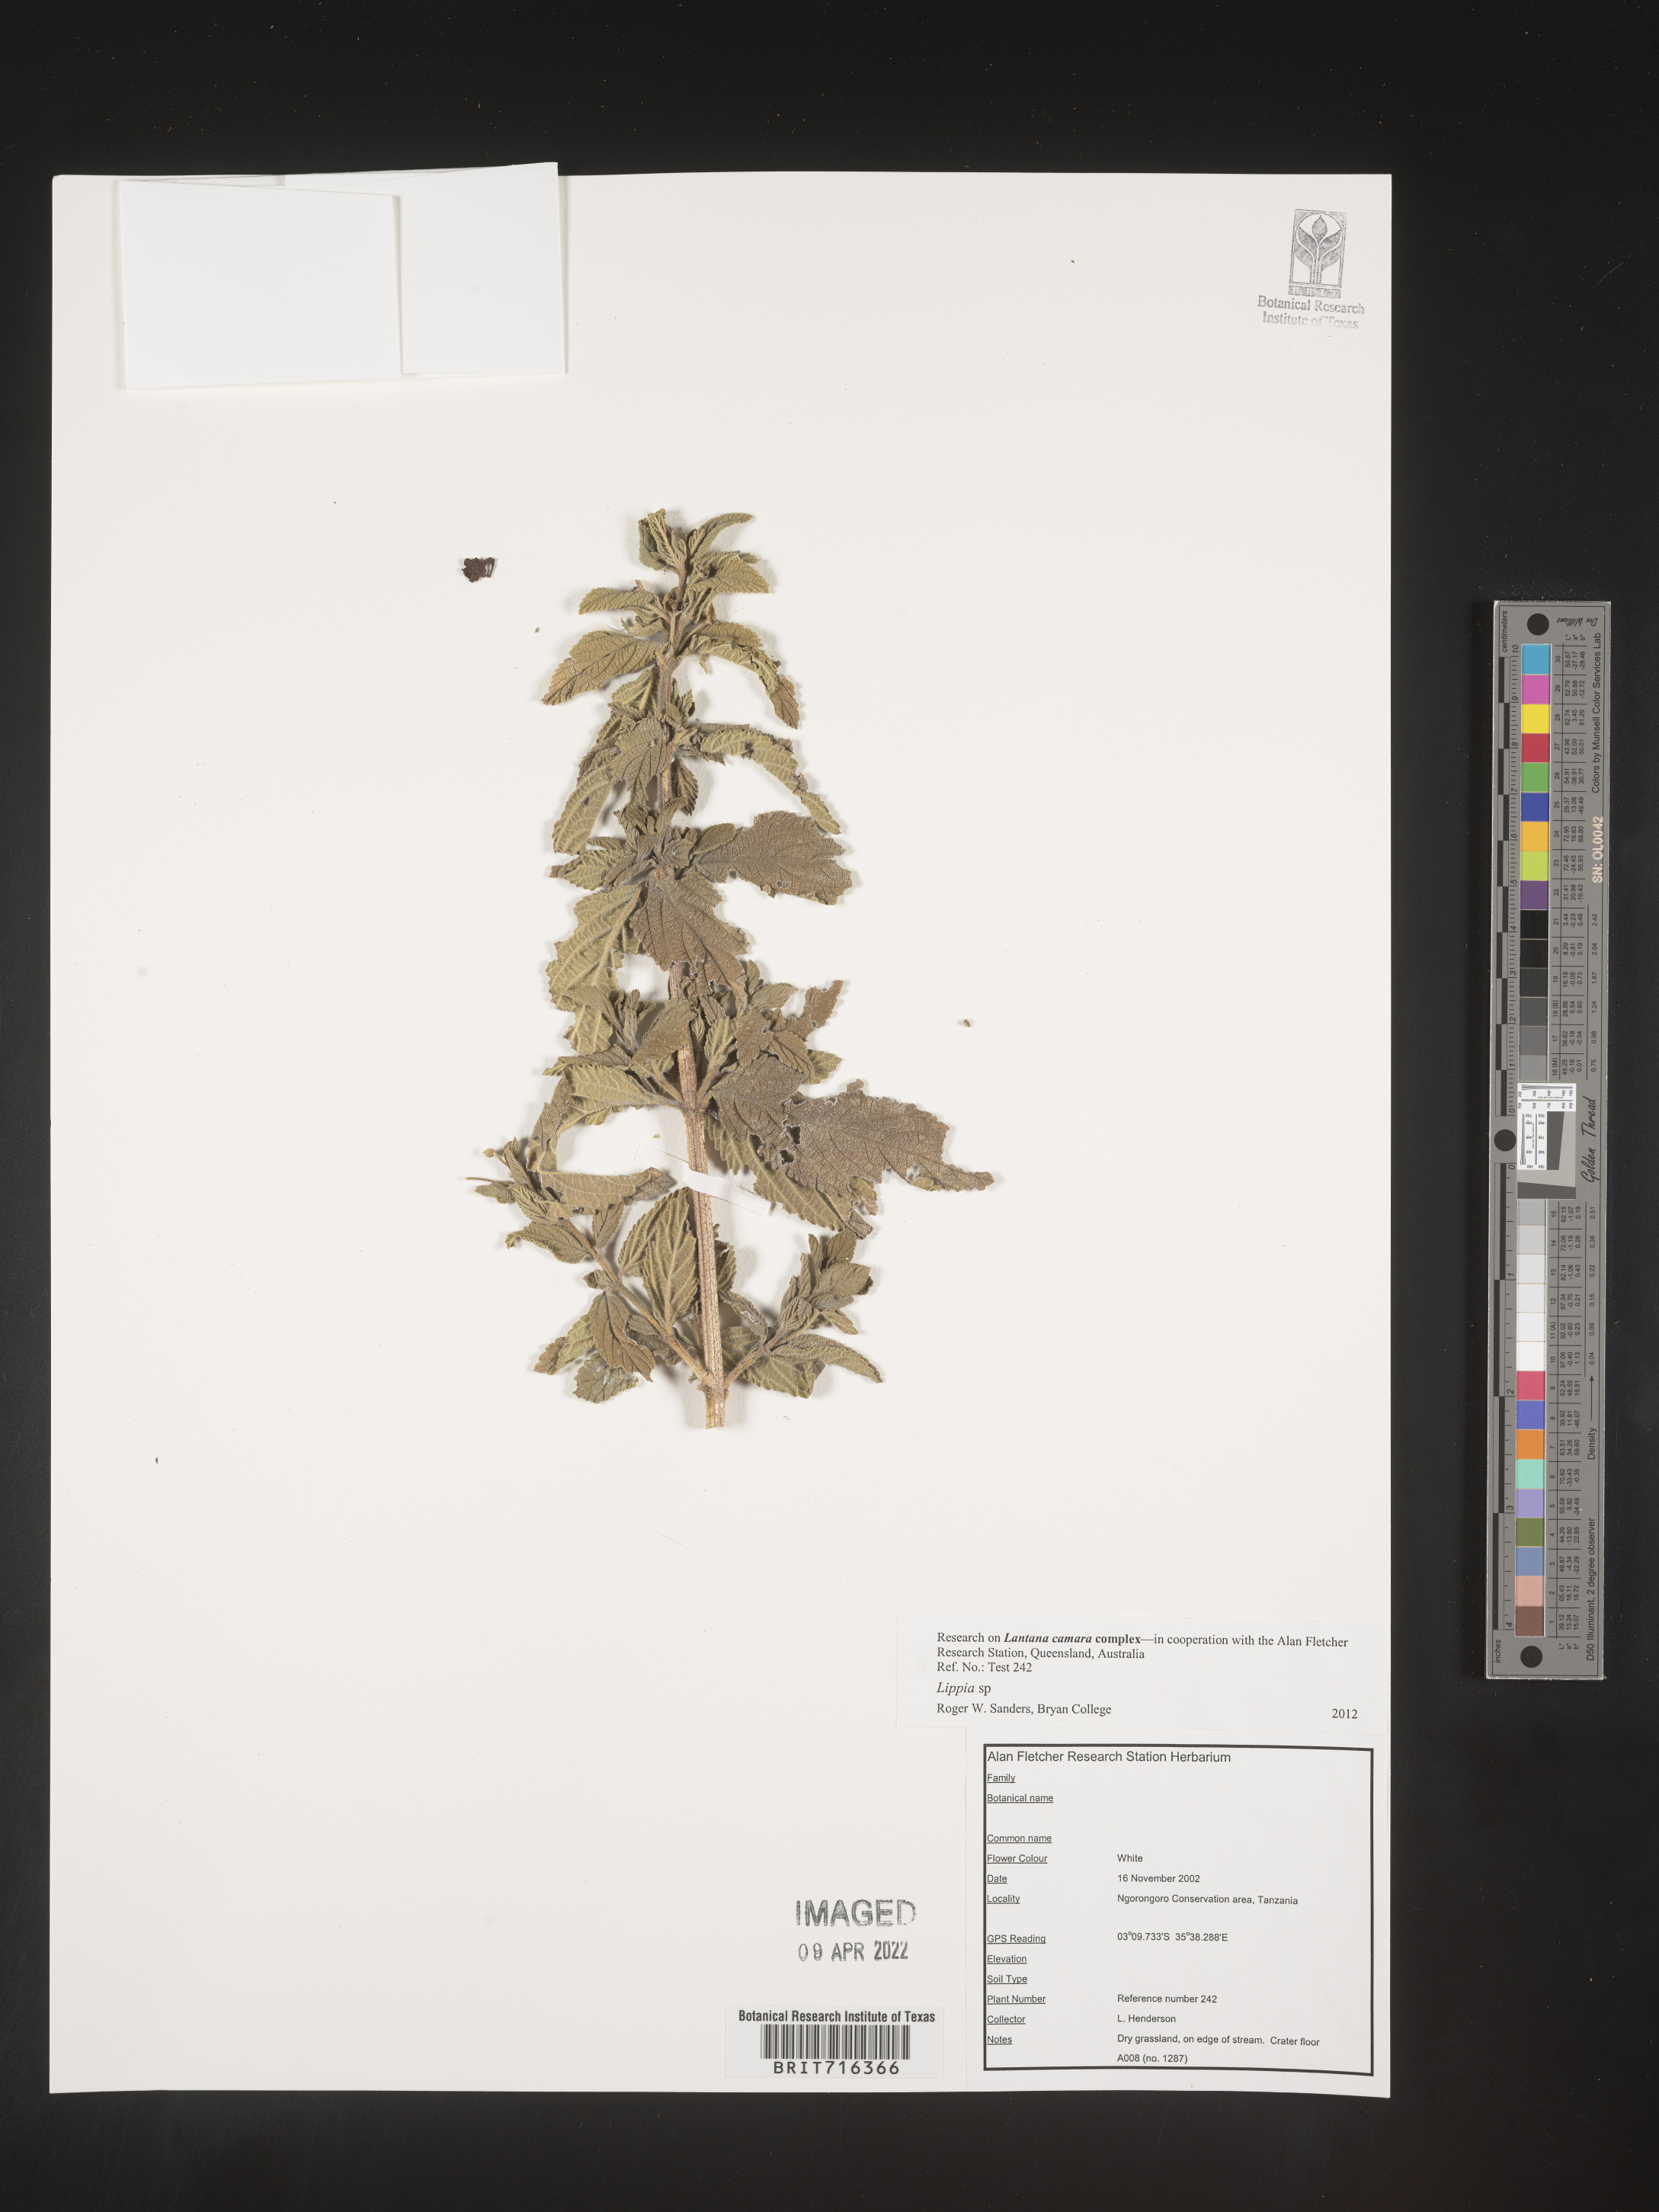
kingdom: Plantae
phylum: Tracheophyta
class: Magnoliopsida
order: Lamiales
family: Verbenaceae
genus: Lippia
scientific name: Lippia
